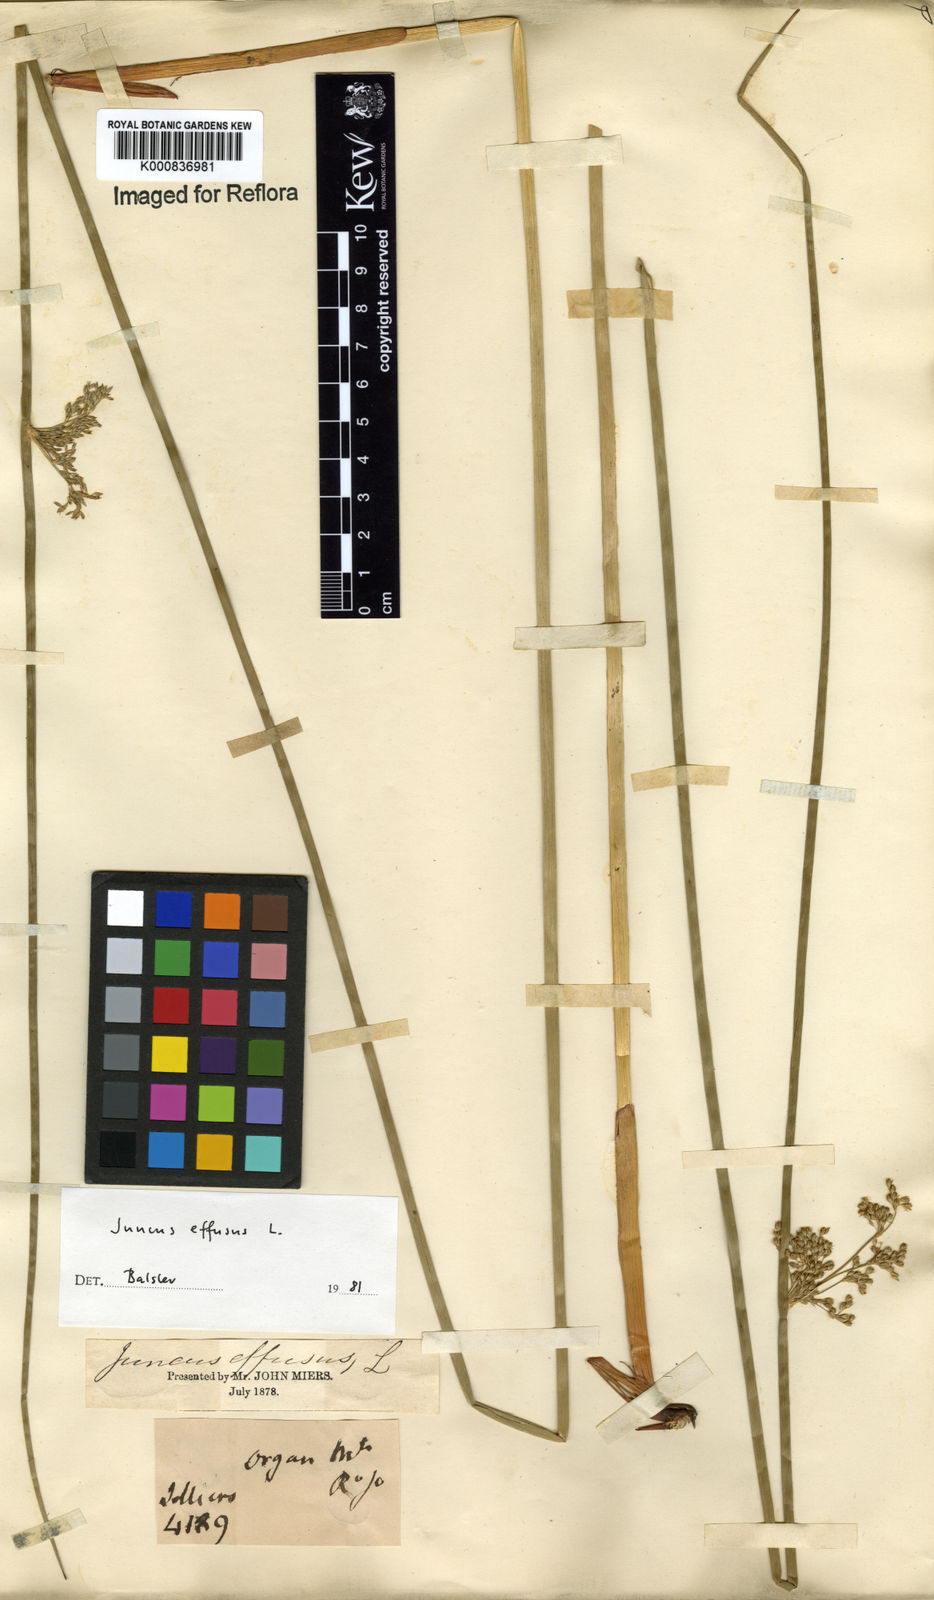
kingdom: Plantae
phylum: Tracheophyta
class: Liliopsida
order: Poales
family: Juncaceae
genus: Juncus
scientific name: Juncus effusus
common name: Soft rush
